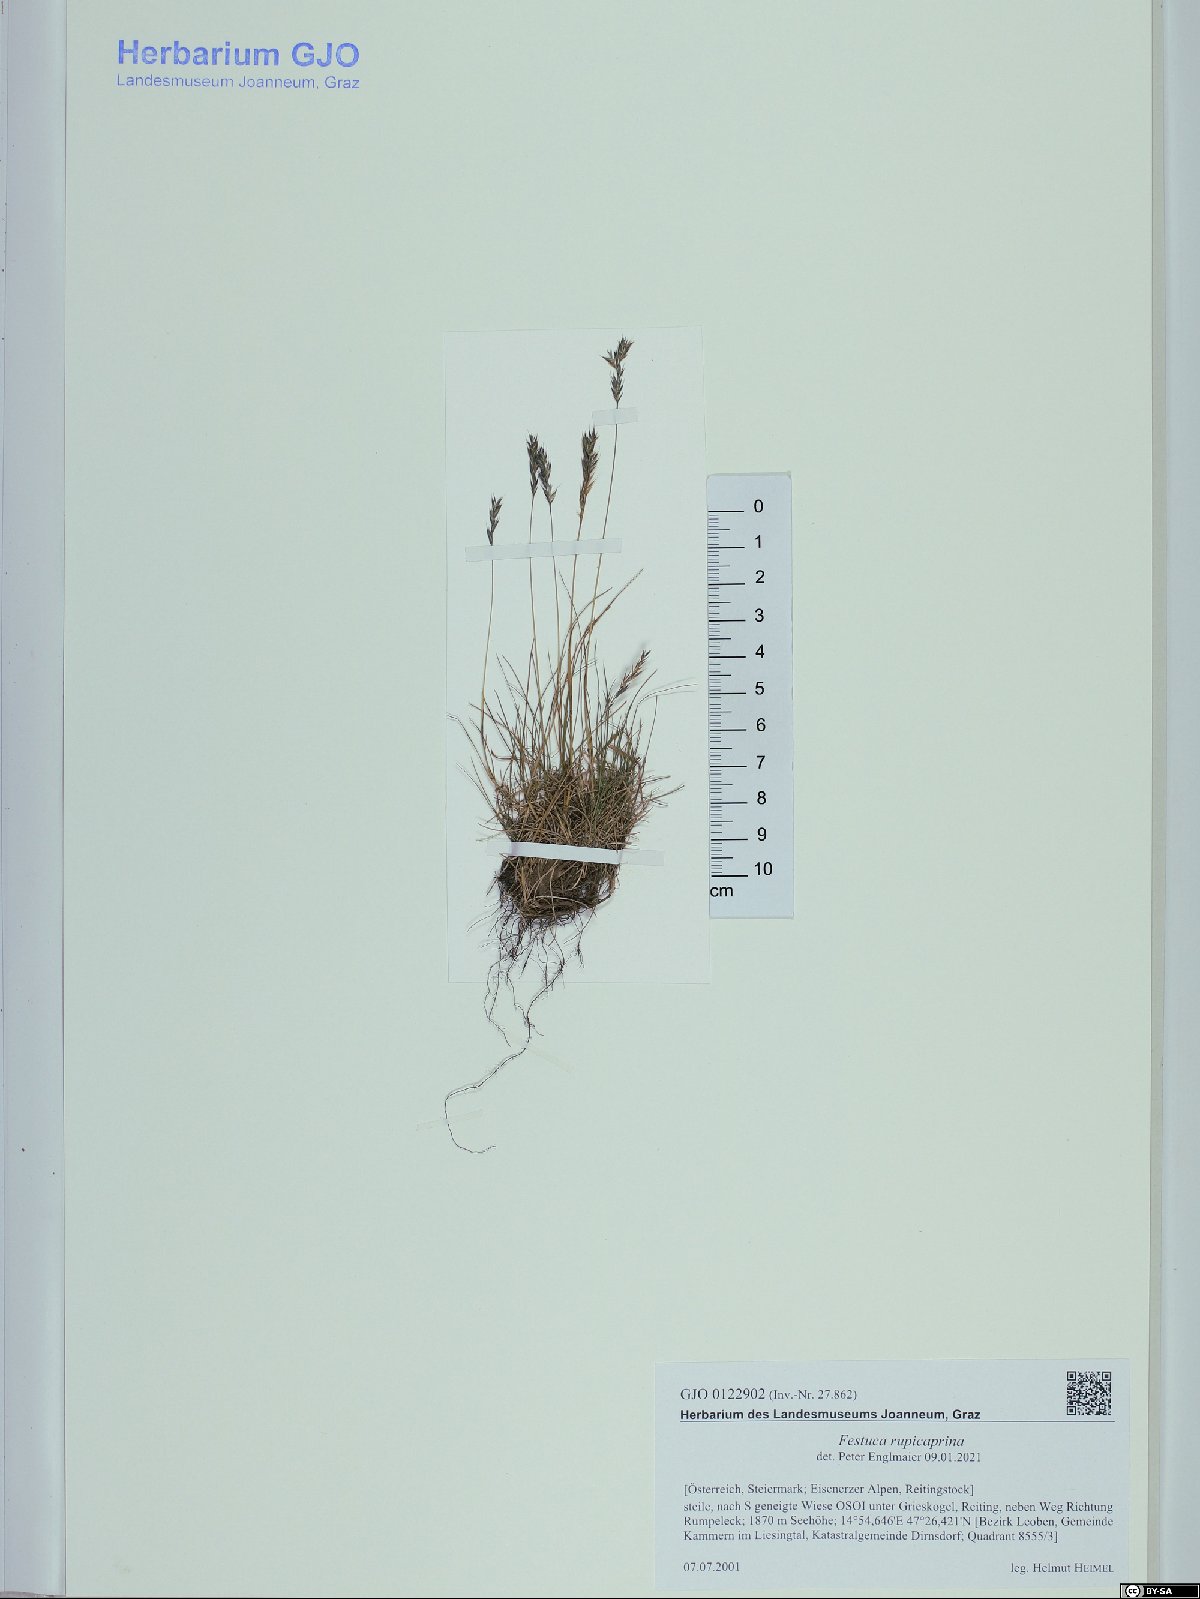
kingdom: Plantae
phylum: Tracheophyta
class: Liliopsida
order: Poales
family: Poaceae
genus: Festuca
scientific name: Festuca rupicaprina
